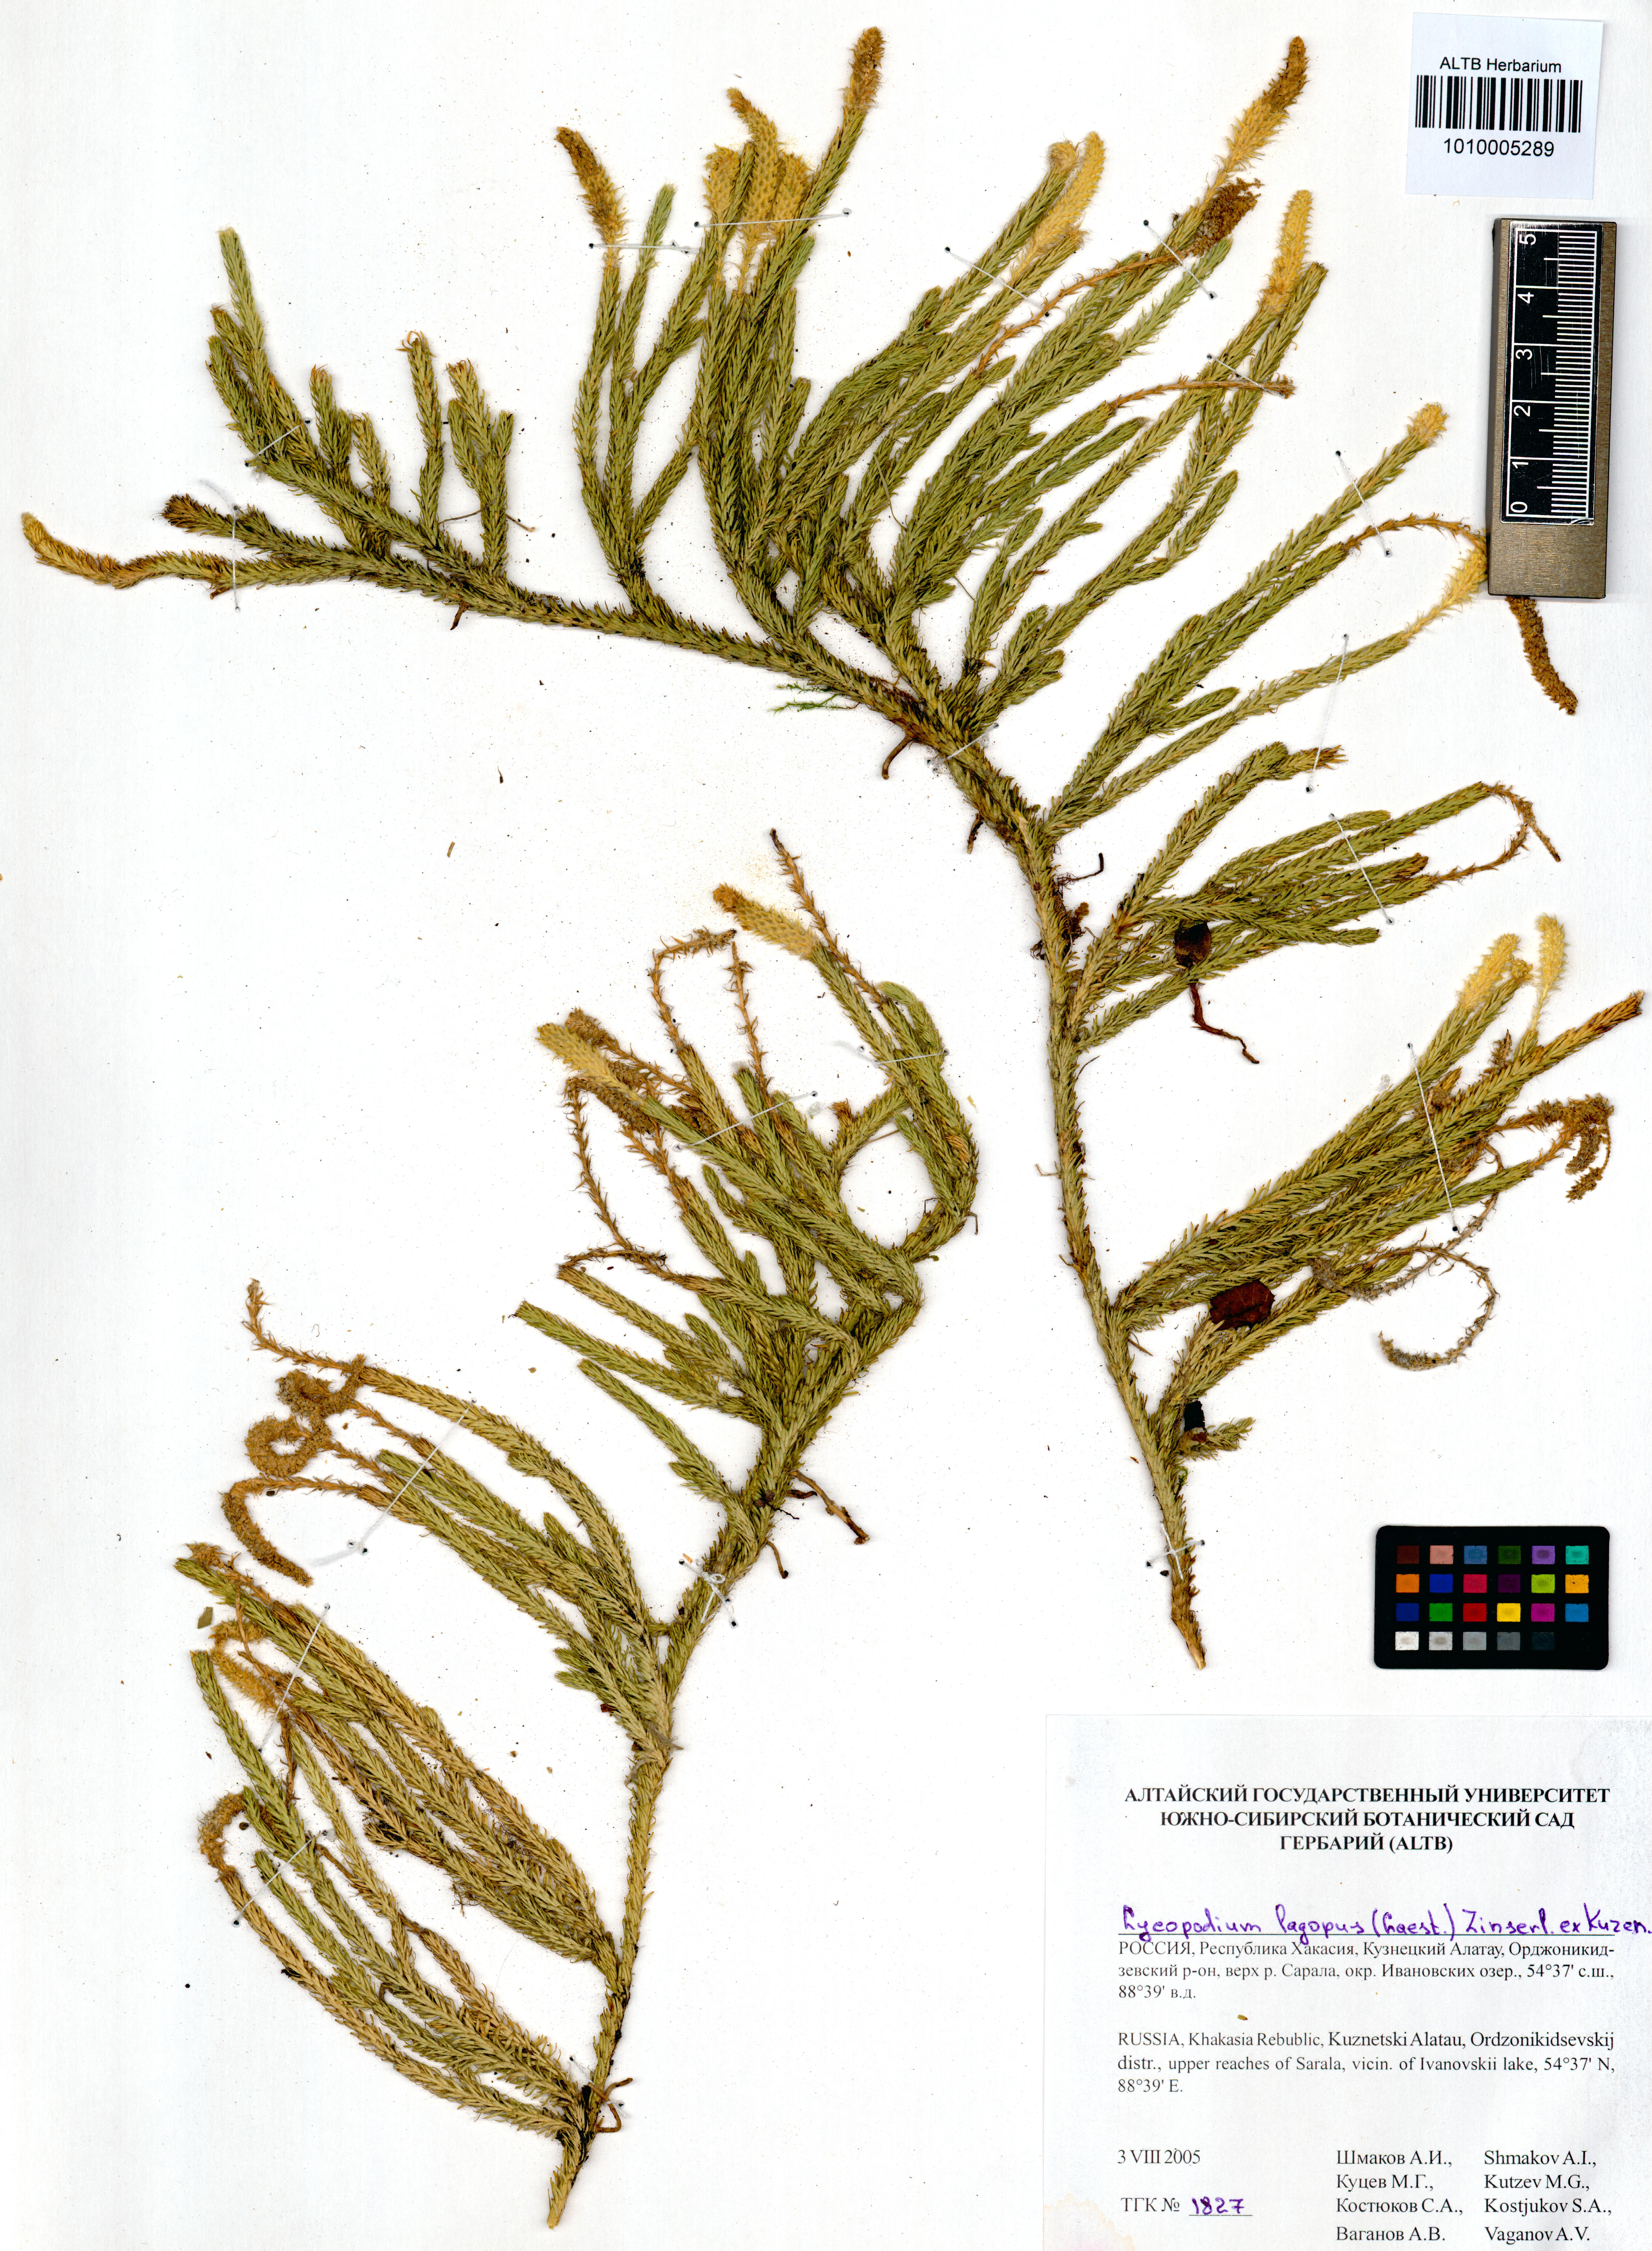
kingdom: Plantae
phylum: Tracheophyta
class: Lycopodiopsida
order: Lycopodiales
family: Lycopodiaceae
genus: Lycopodium
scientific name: Lycopodium lagopus
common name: One-cone clubmoss
